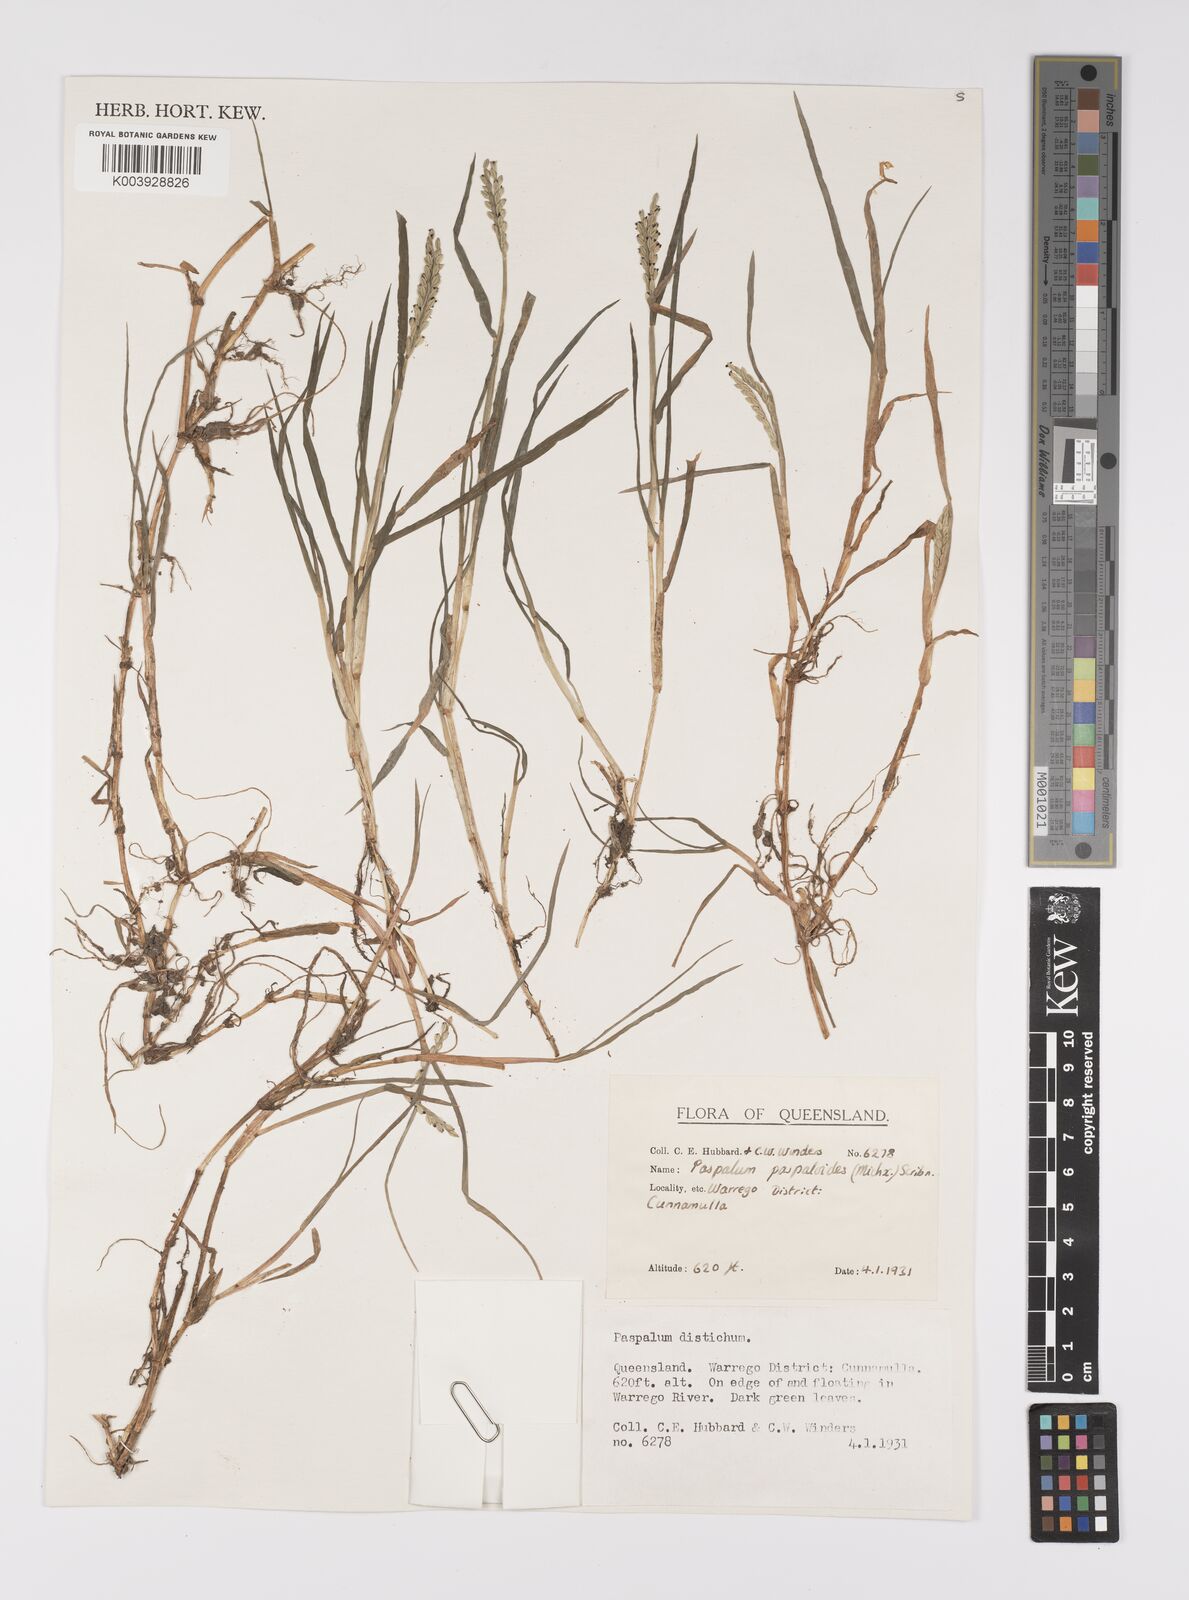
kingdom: Plantae
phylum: Tracheophyta
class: Liliopsida
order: Poales
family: Poaceae
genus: Paspalum
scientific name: Paspalum distichum
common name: Knotgrass
